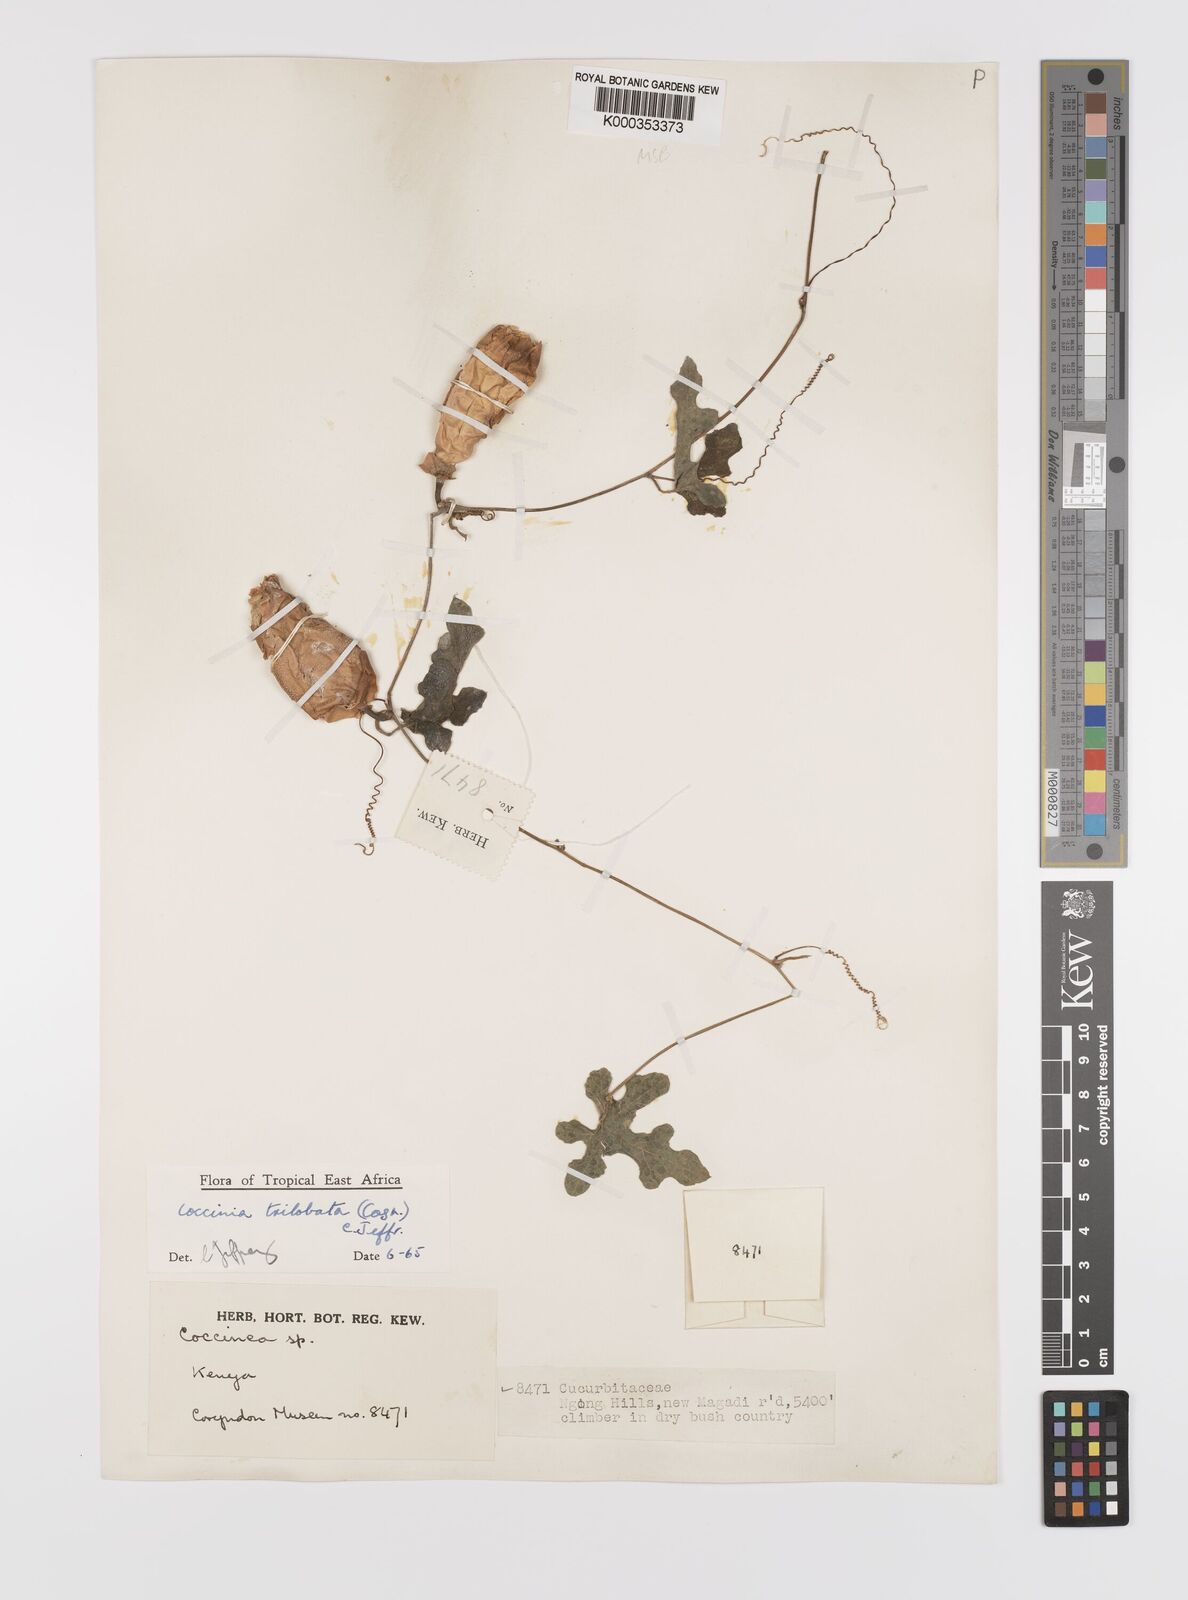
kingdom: Plantae
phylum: Tracheophyta
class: Magnoliopsida
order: Cucurbitales
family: Cucurbitaceae
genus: Coccinia
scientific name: Coccinia trilobata
